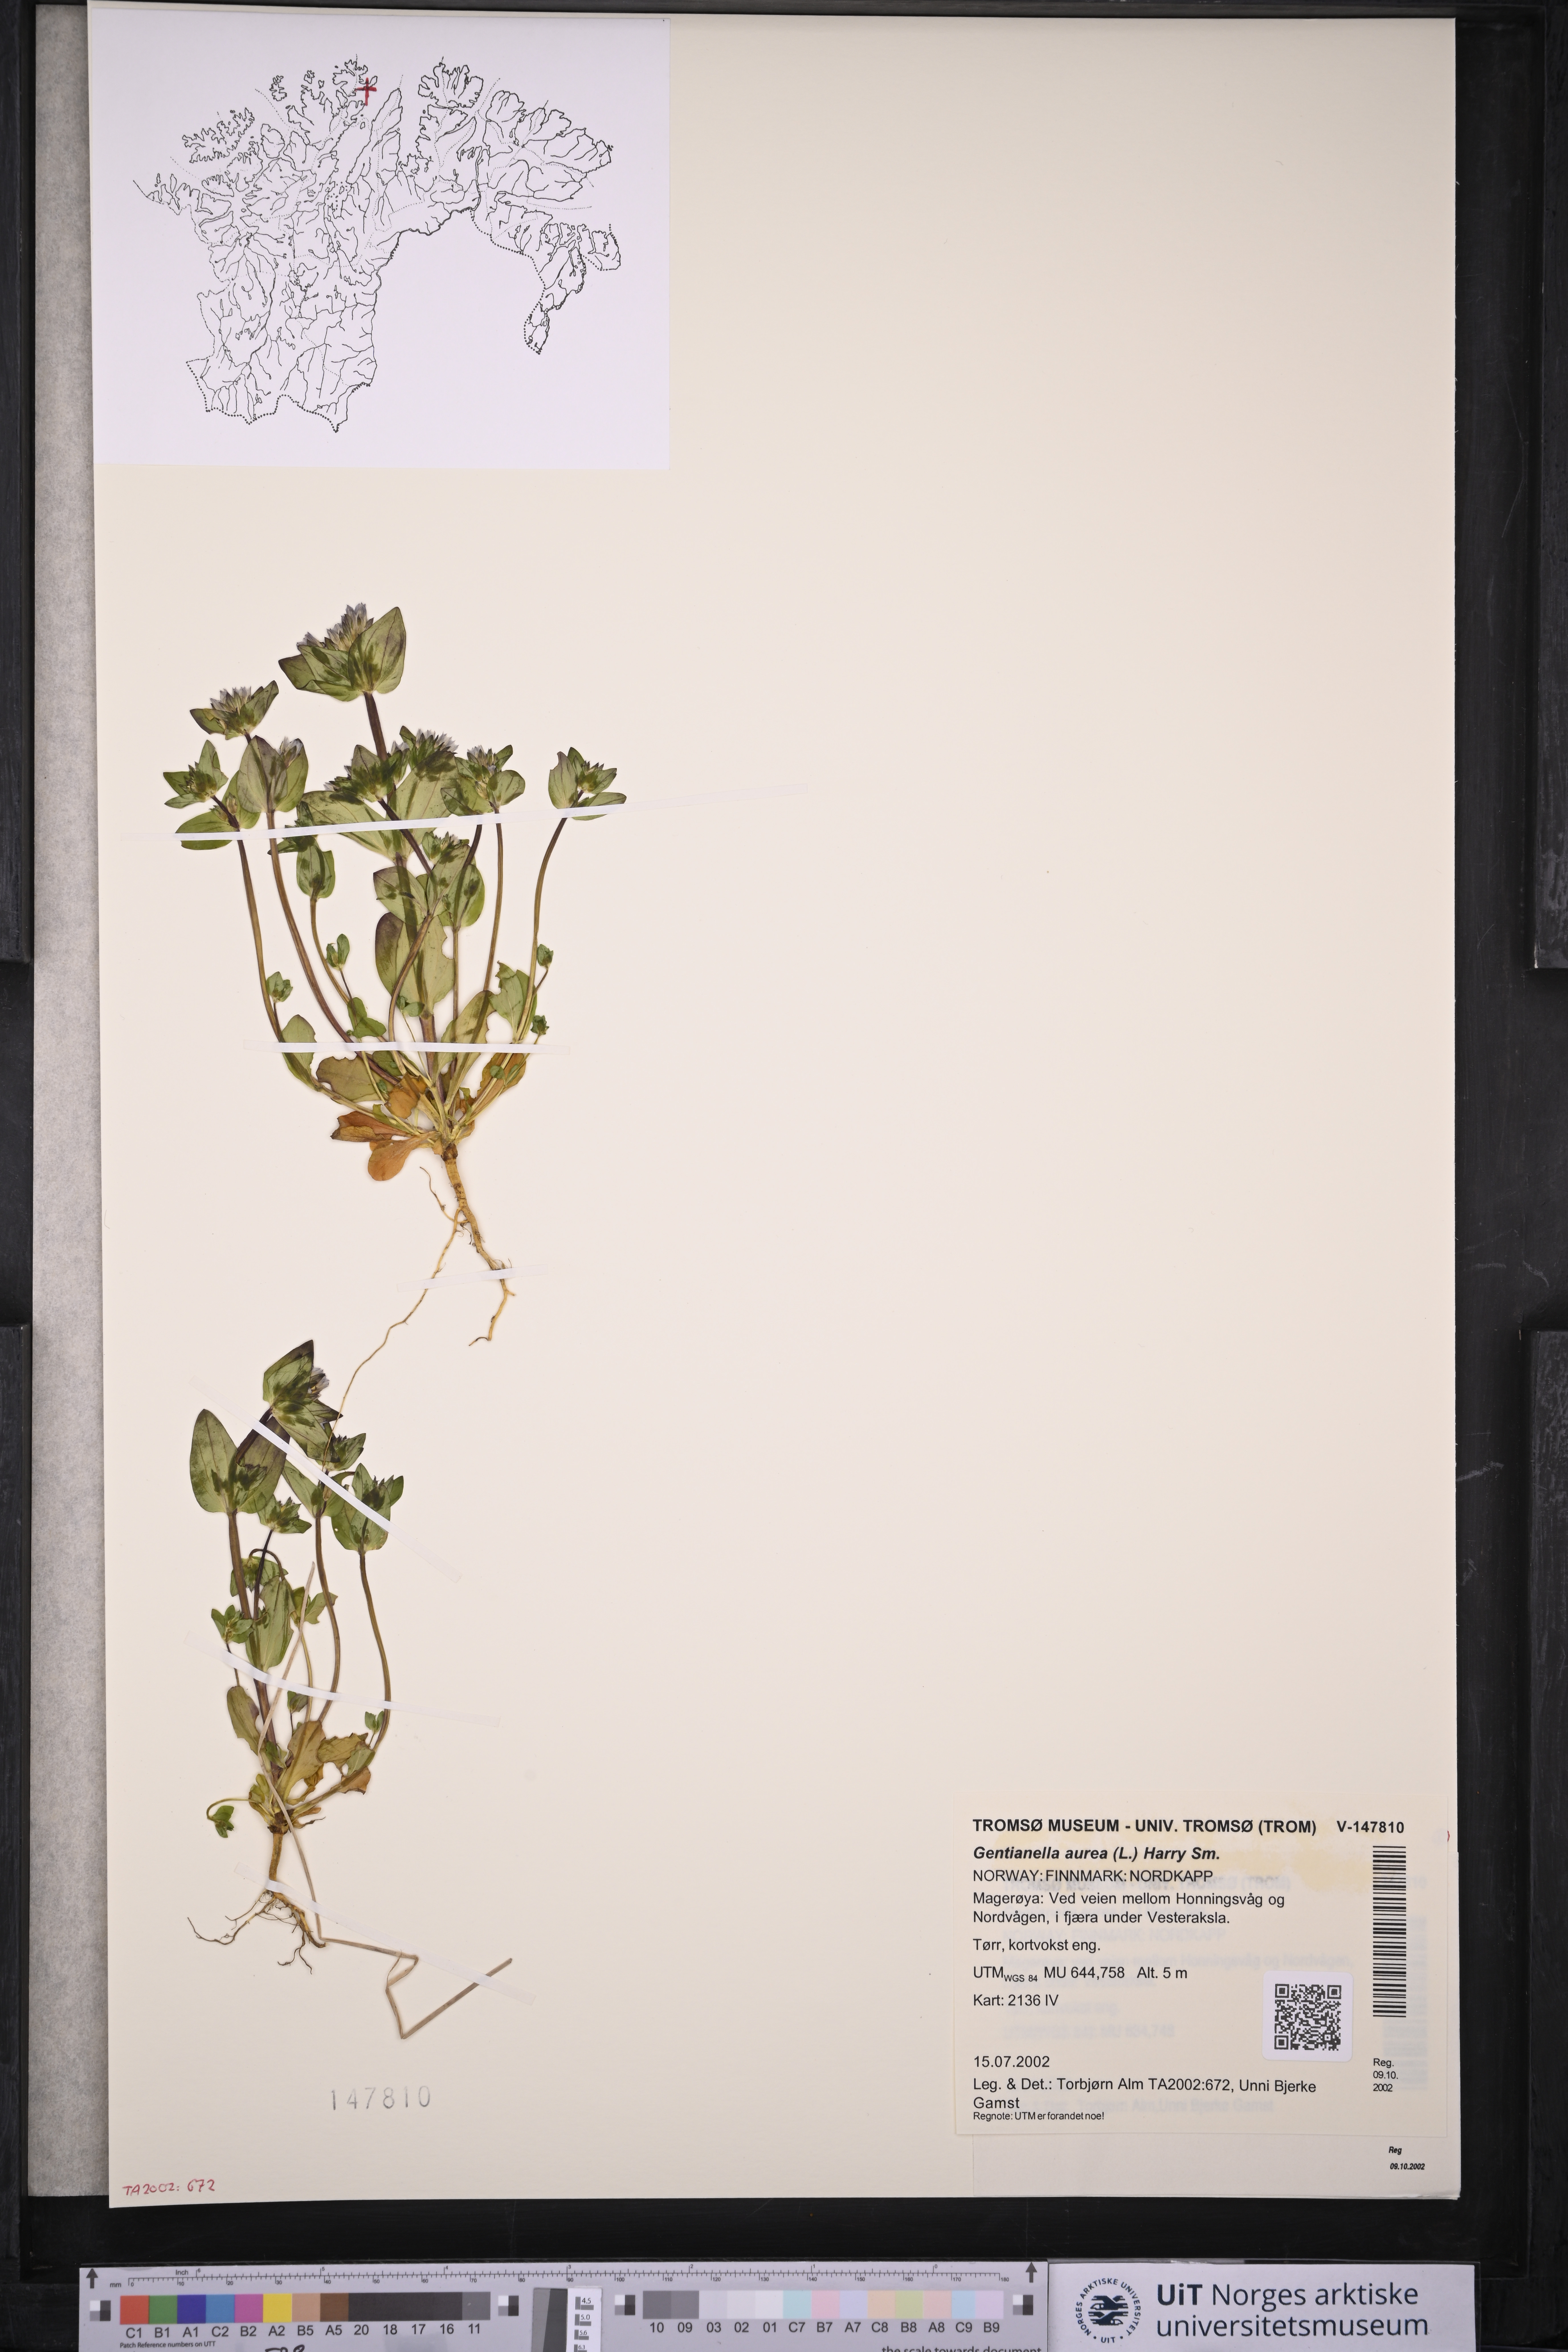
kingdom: Plantae
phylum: Tracheophyta
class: Magnoliopsida
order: Gentianales
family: Gentianaceae
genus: Gentianella
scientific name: Gentianella aurea
